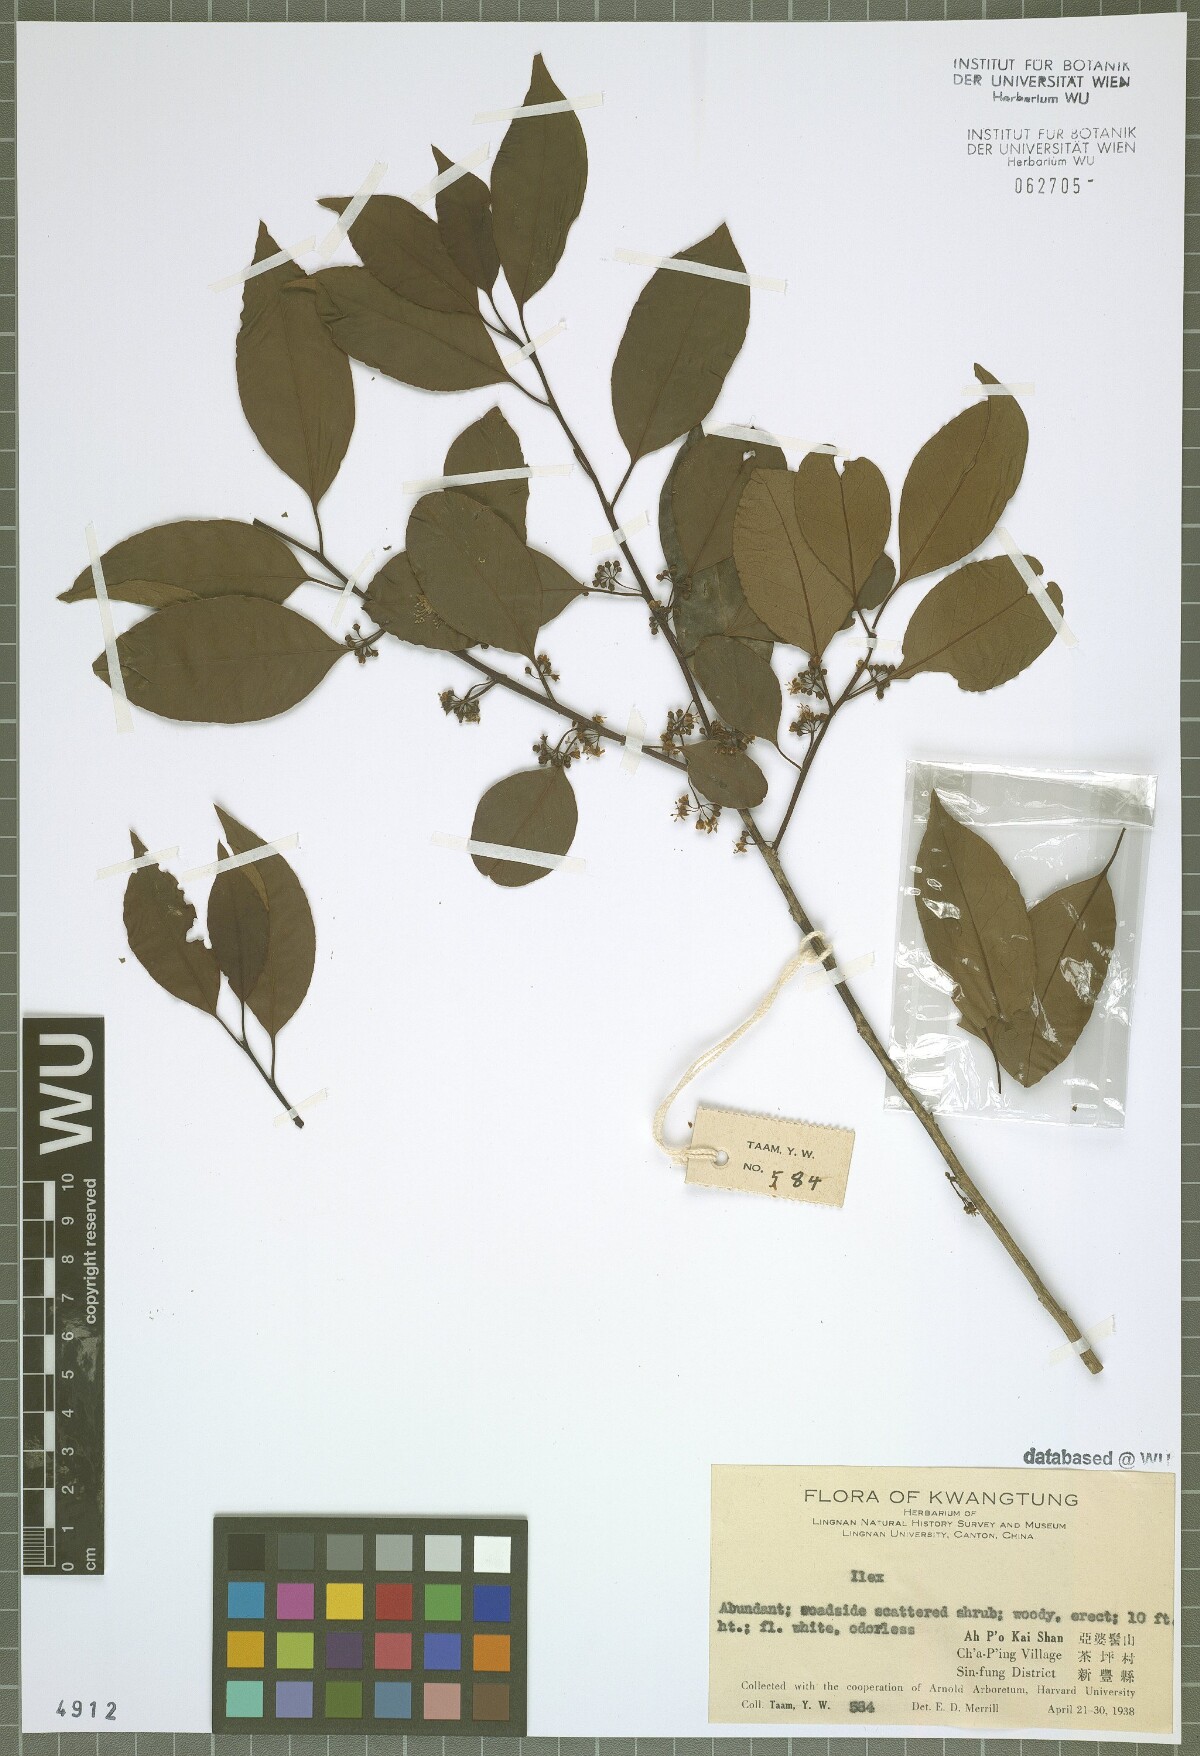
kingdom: Plantae
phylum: Tracheophyta
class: Magnoliopsida
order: Aquifoliales
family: Aquifoliaceae
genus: Ilex
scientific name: Ilex
